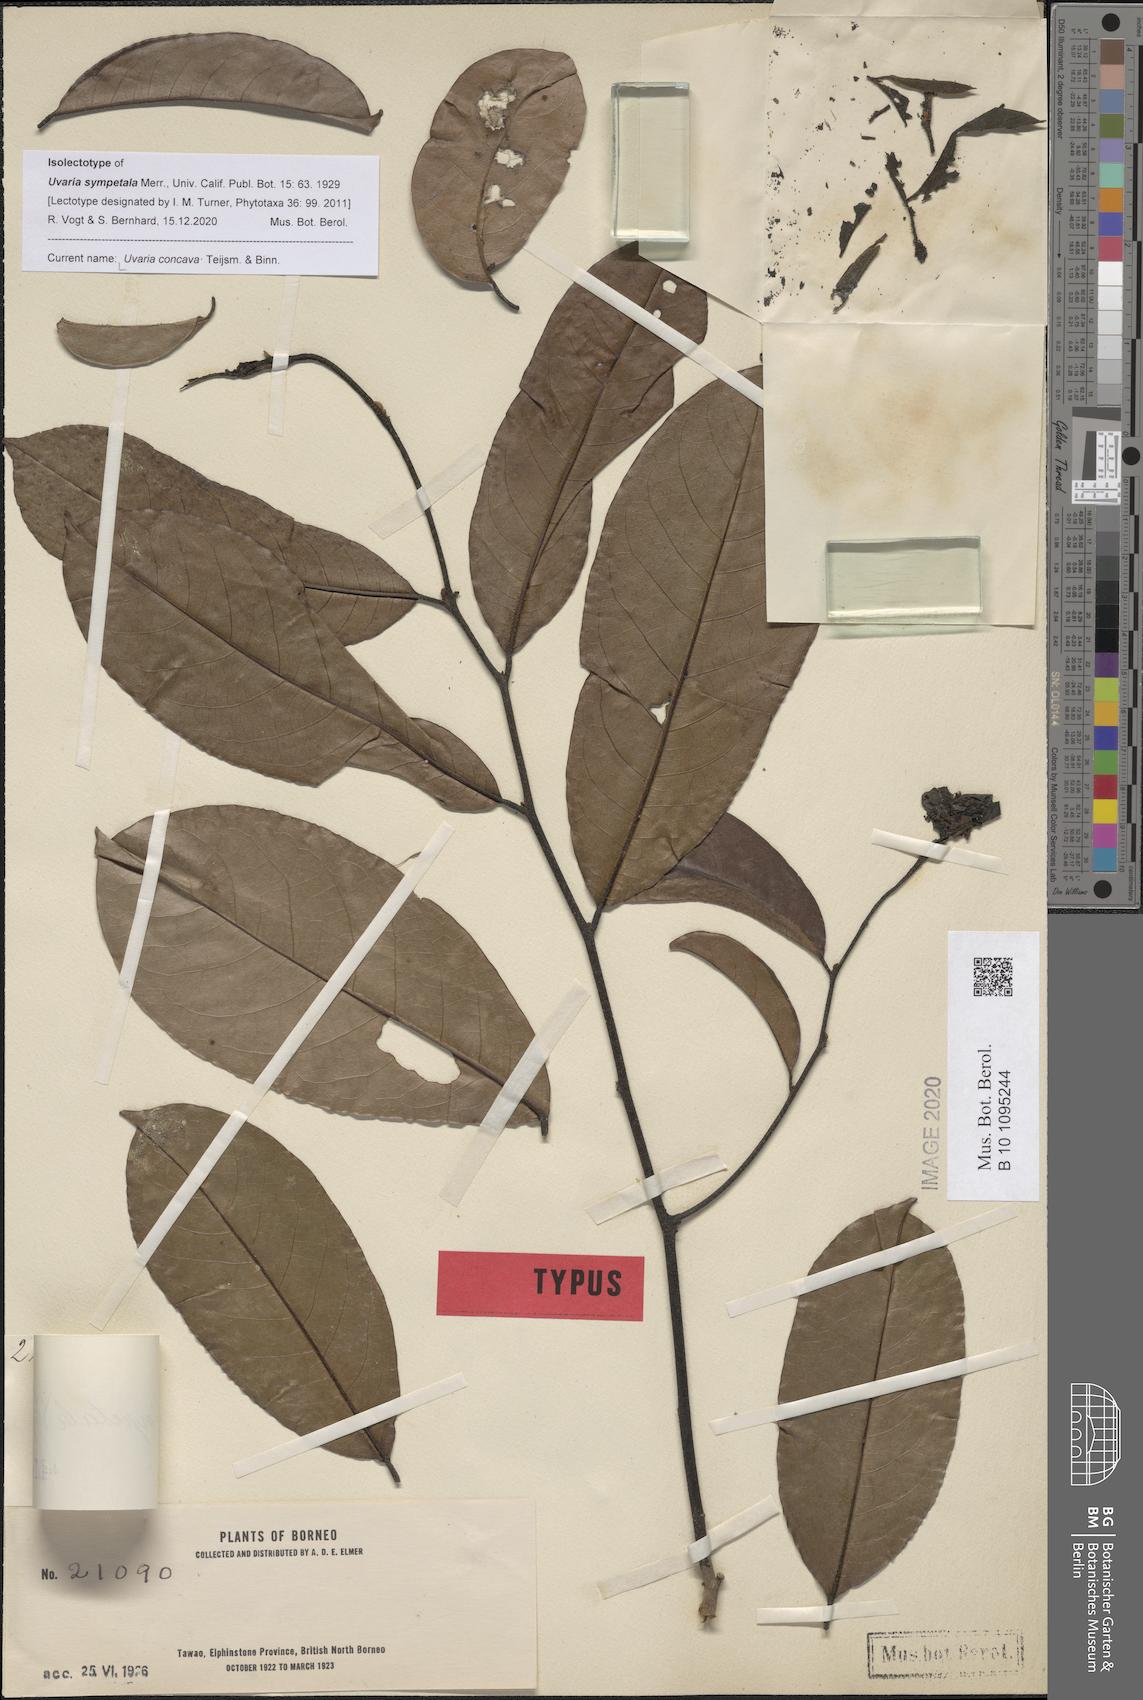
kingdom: Plantae
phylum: Tracheophyta
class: Magnoliopsida
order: Magnoliales
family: Annonaceae
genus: Uvaria
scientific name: Uvaria concava
